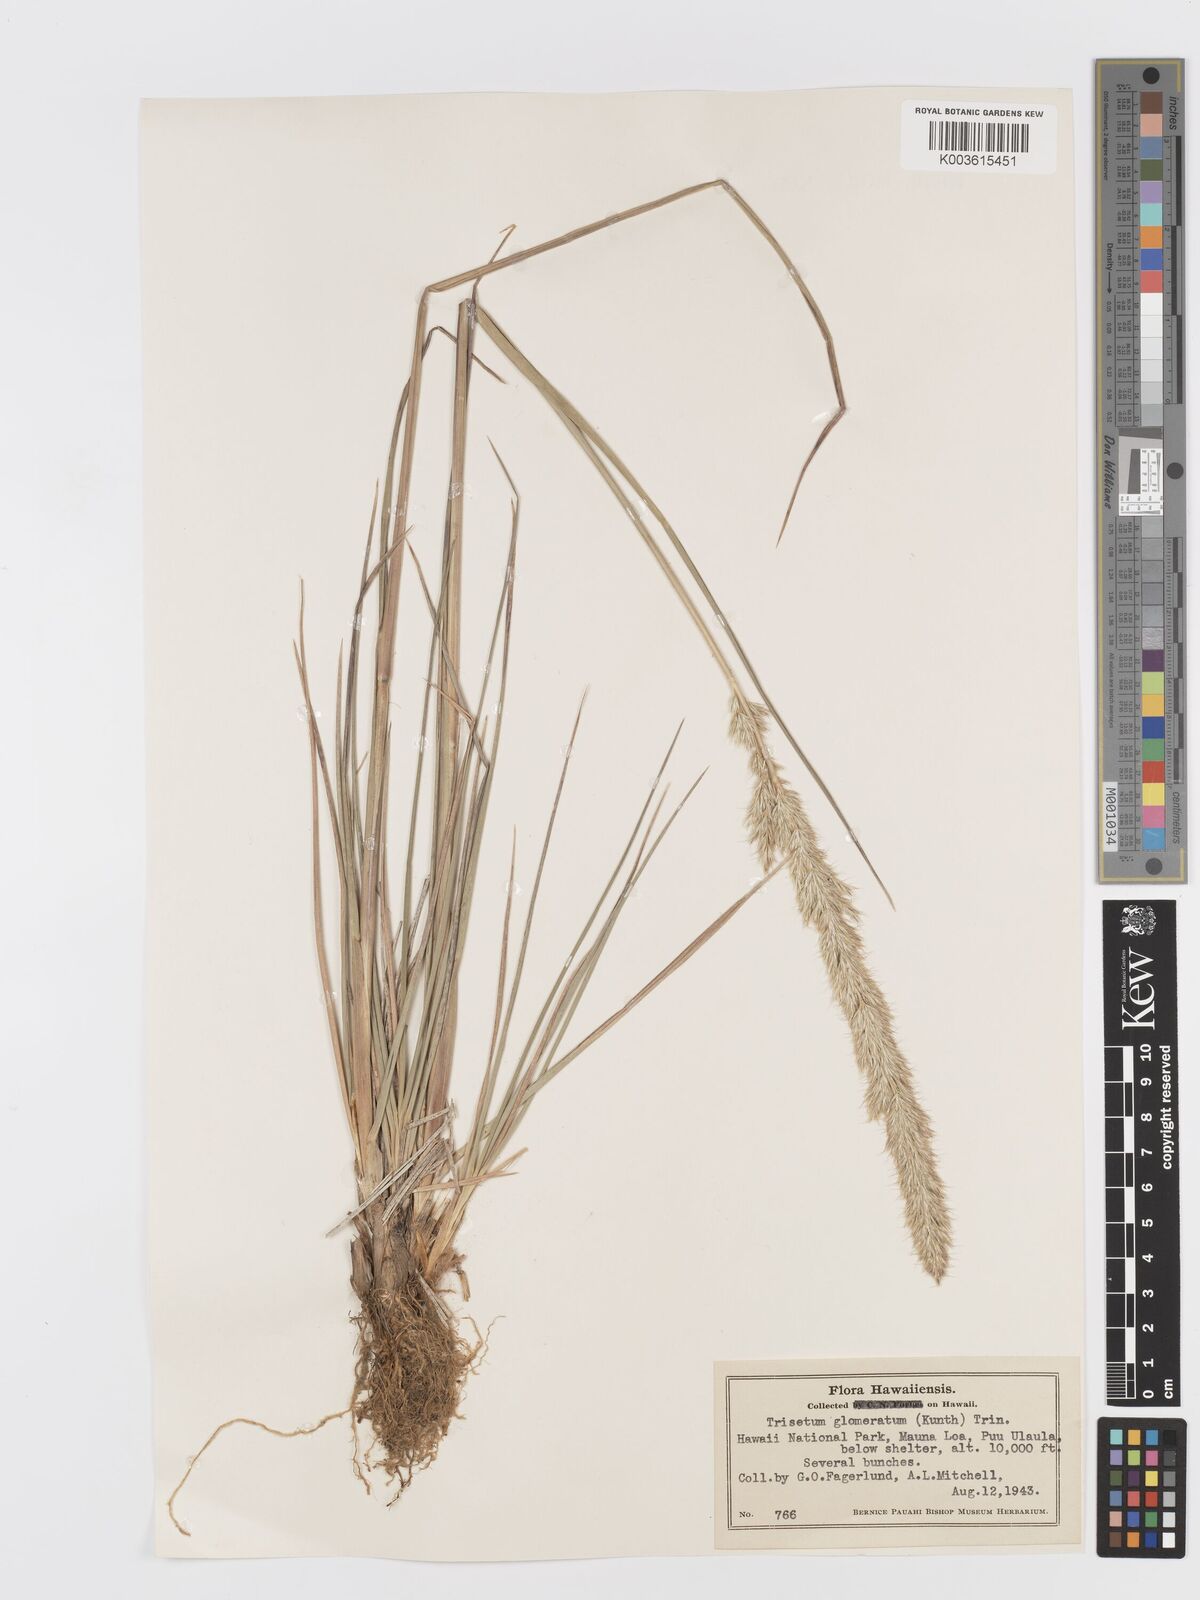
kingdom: Plantae
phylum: Tracheophyta
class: Liliopsida
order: Poales
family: Poaceae
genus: Trisetum
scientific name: Trisetum glomeratum
